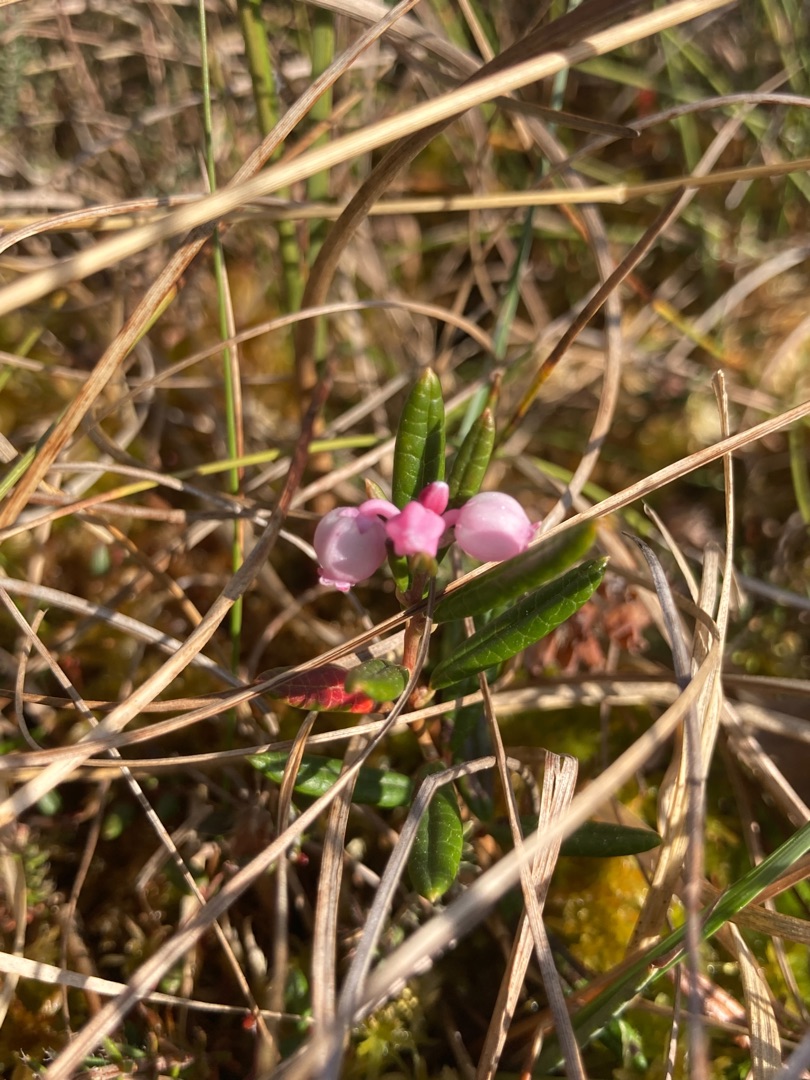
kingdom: Plantae
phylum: Tracheophyta
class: Magnoliopsida
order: Ericales
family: Ericaceae
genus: Andromeda
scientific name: Andromeda polifolia
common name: Rosmarinlyng
